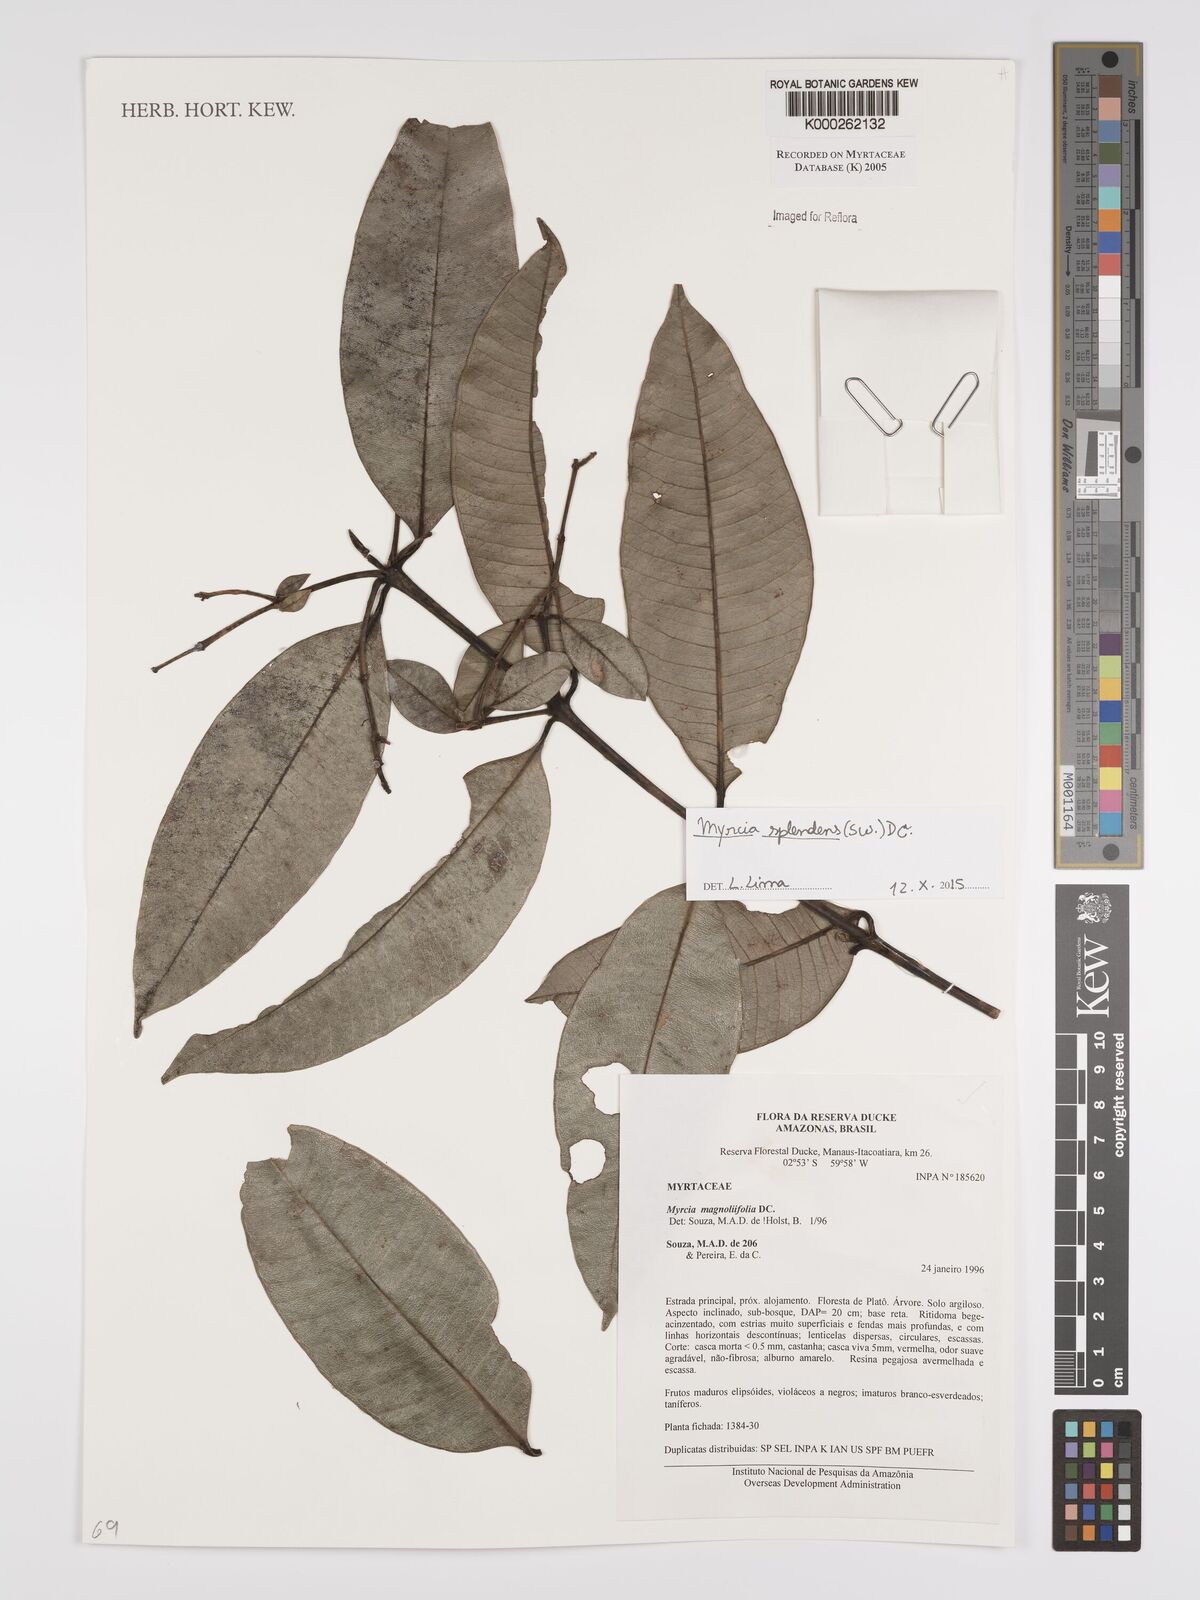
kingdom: Plantae
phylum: Tracheophyta
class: Magnoliopsida
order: Myrtales
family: Myrtaceae
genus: Myrcia
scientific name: Myrcia splendens
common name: Surinam cherry
